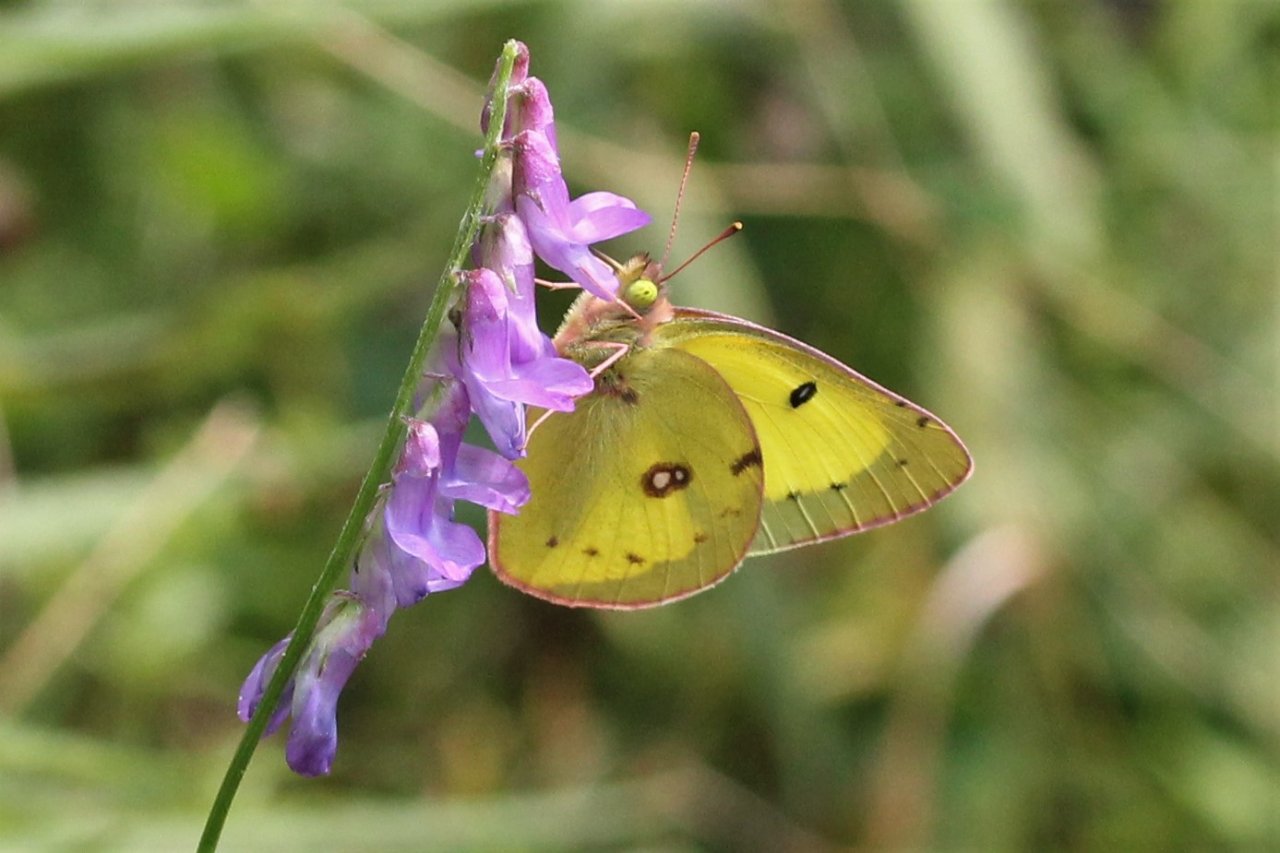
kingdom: Animalia
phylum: Arthropoda
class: Insecta
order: Lepidoptera
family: Pieridae
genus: Colias
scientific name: Colias philodice
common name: Clouded Sulphur
